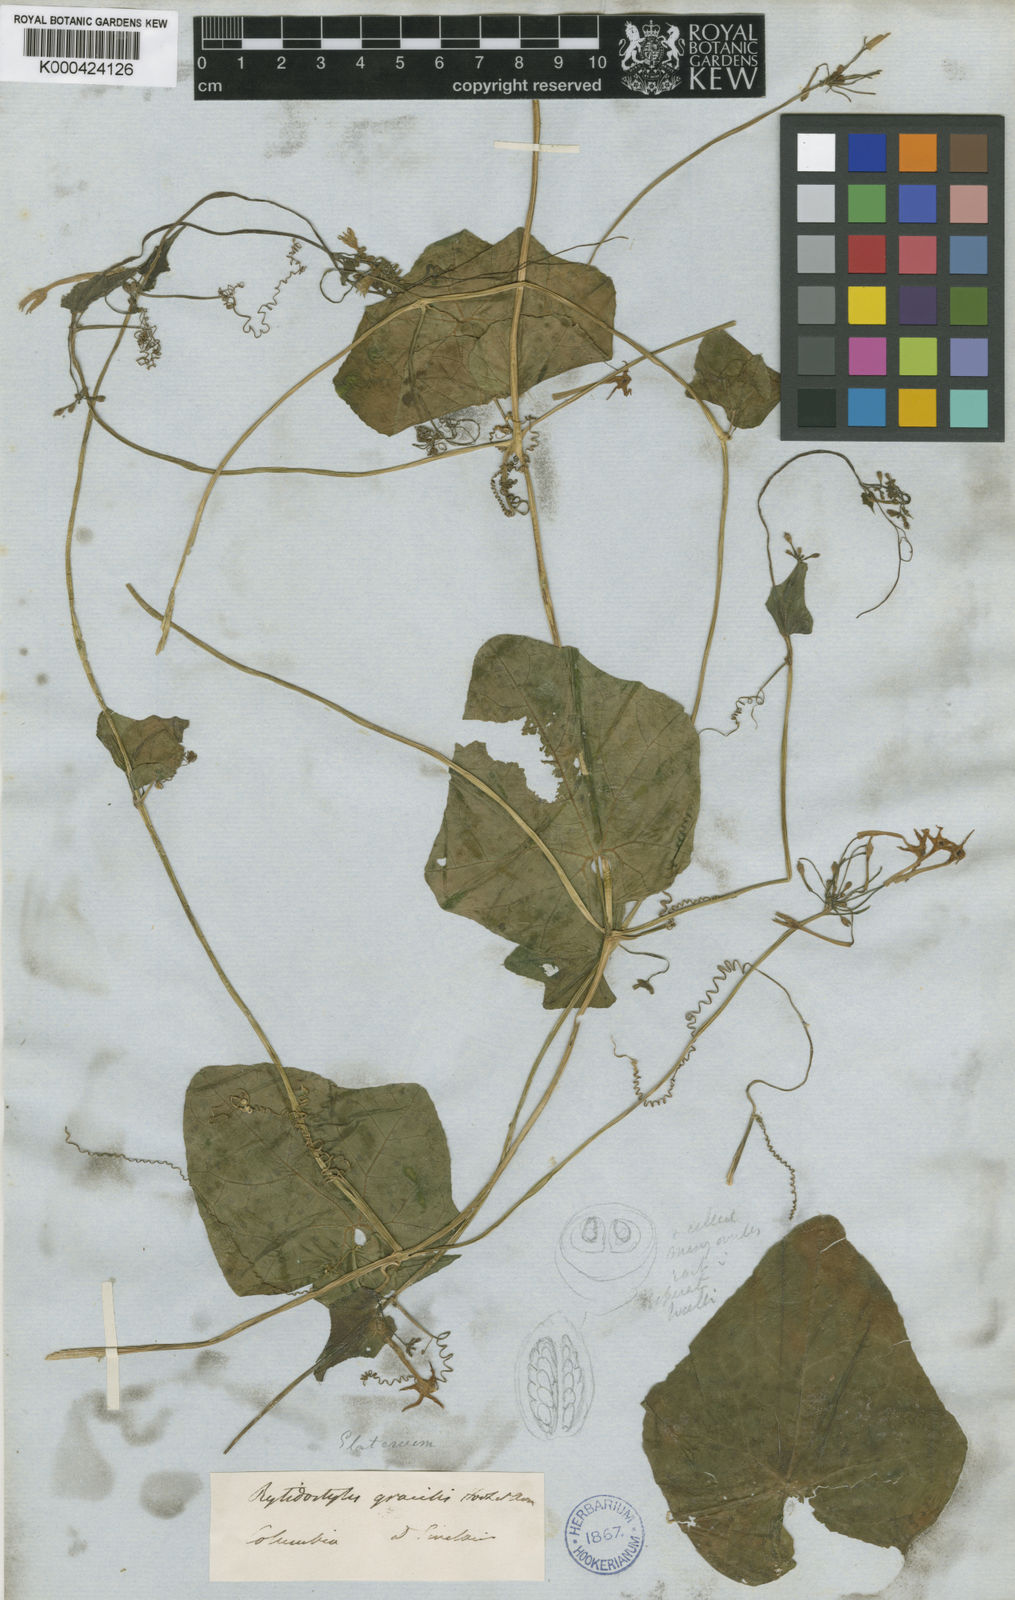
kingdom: Plantae
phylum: Tracheophyta
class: Magnoliopsida
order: Cucurbitales
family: Cucurbitaceae
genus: Cyclanthera
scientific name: Cyclanthera filiformis
